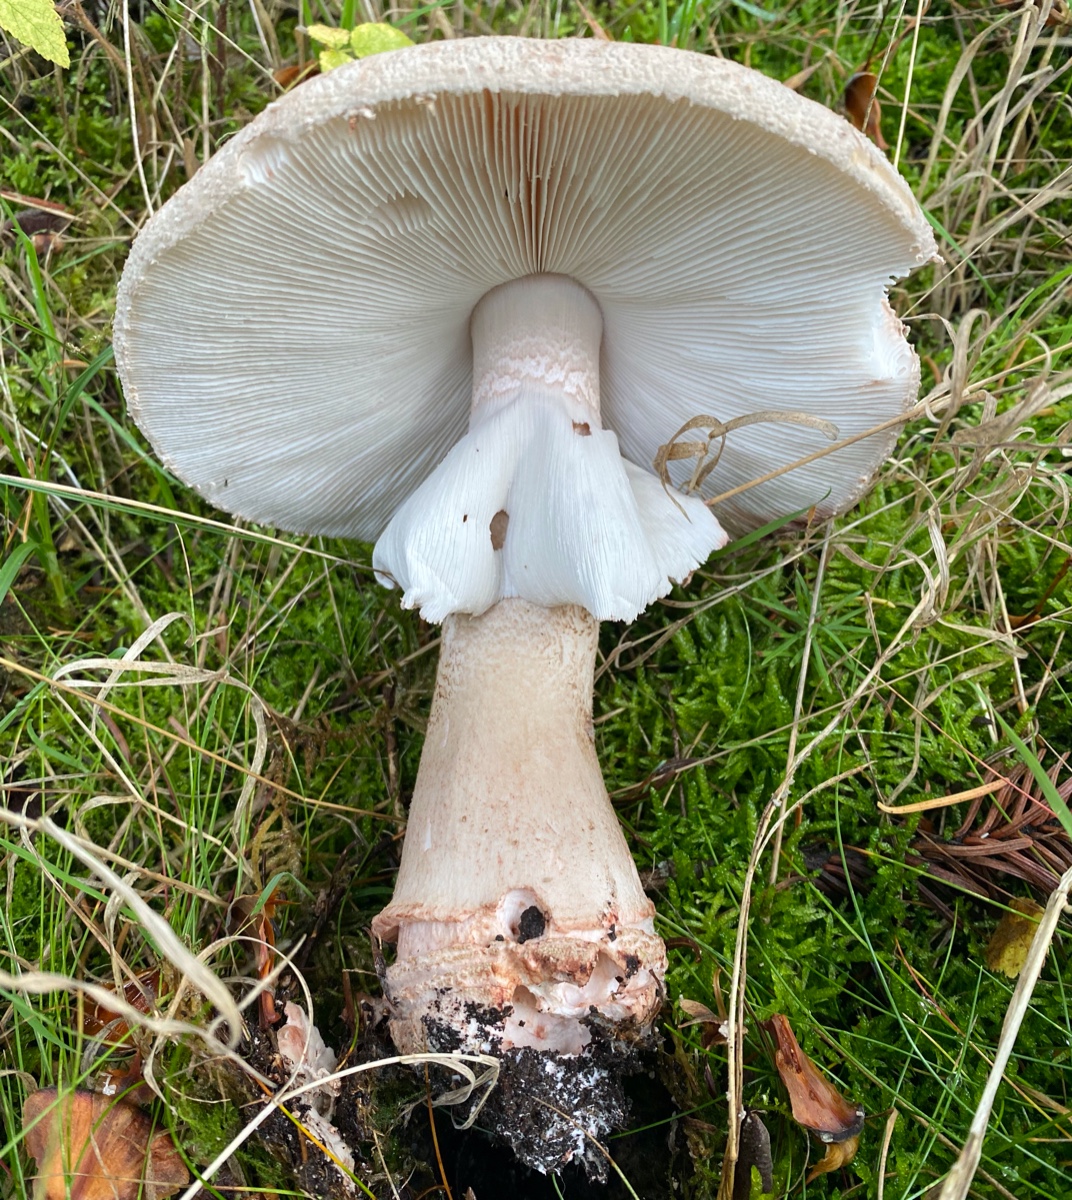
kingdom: Fungi
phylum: Basidiomycota
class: Agaricomycetes
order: Agaricales
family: Amanitaceae
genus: Amanita
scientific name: Amanita rubescens
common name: rødmende fluesvamp
